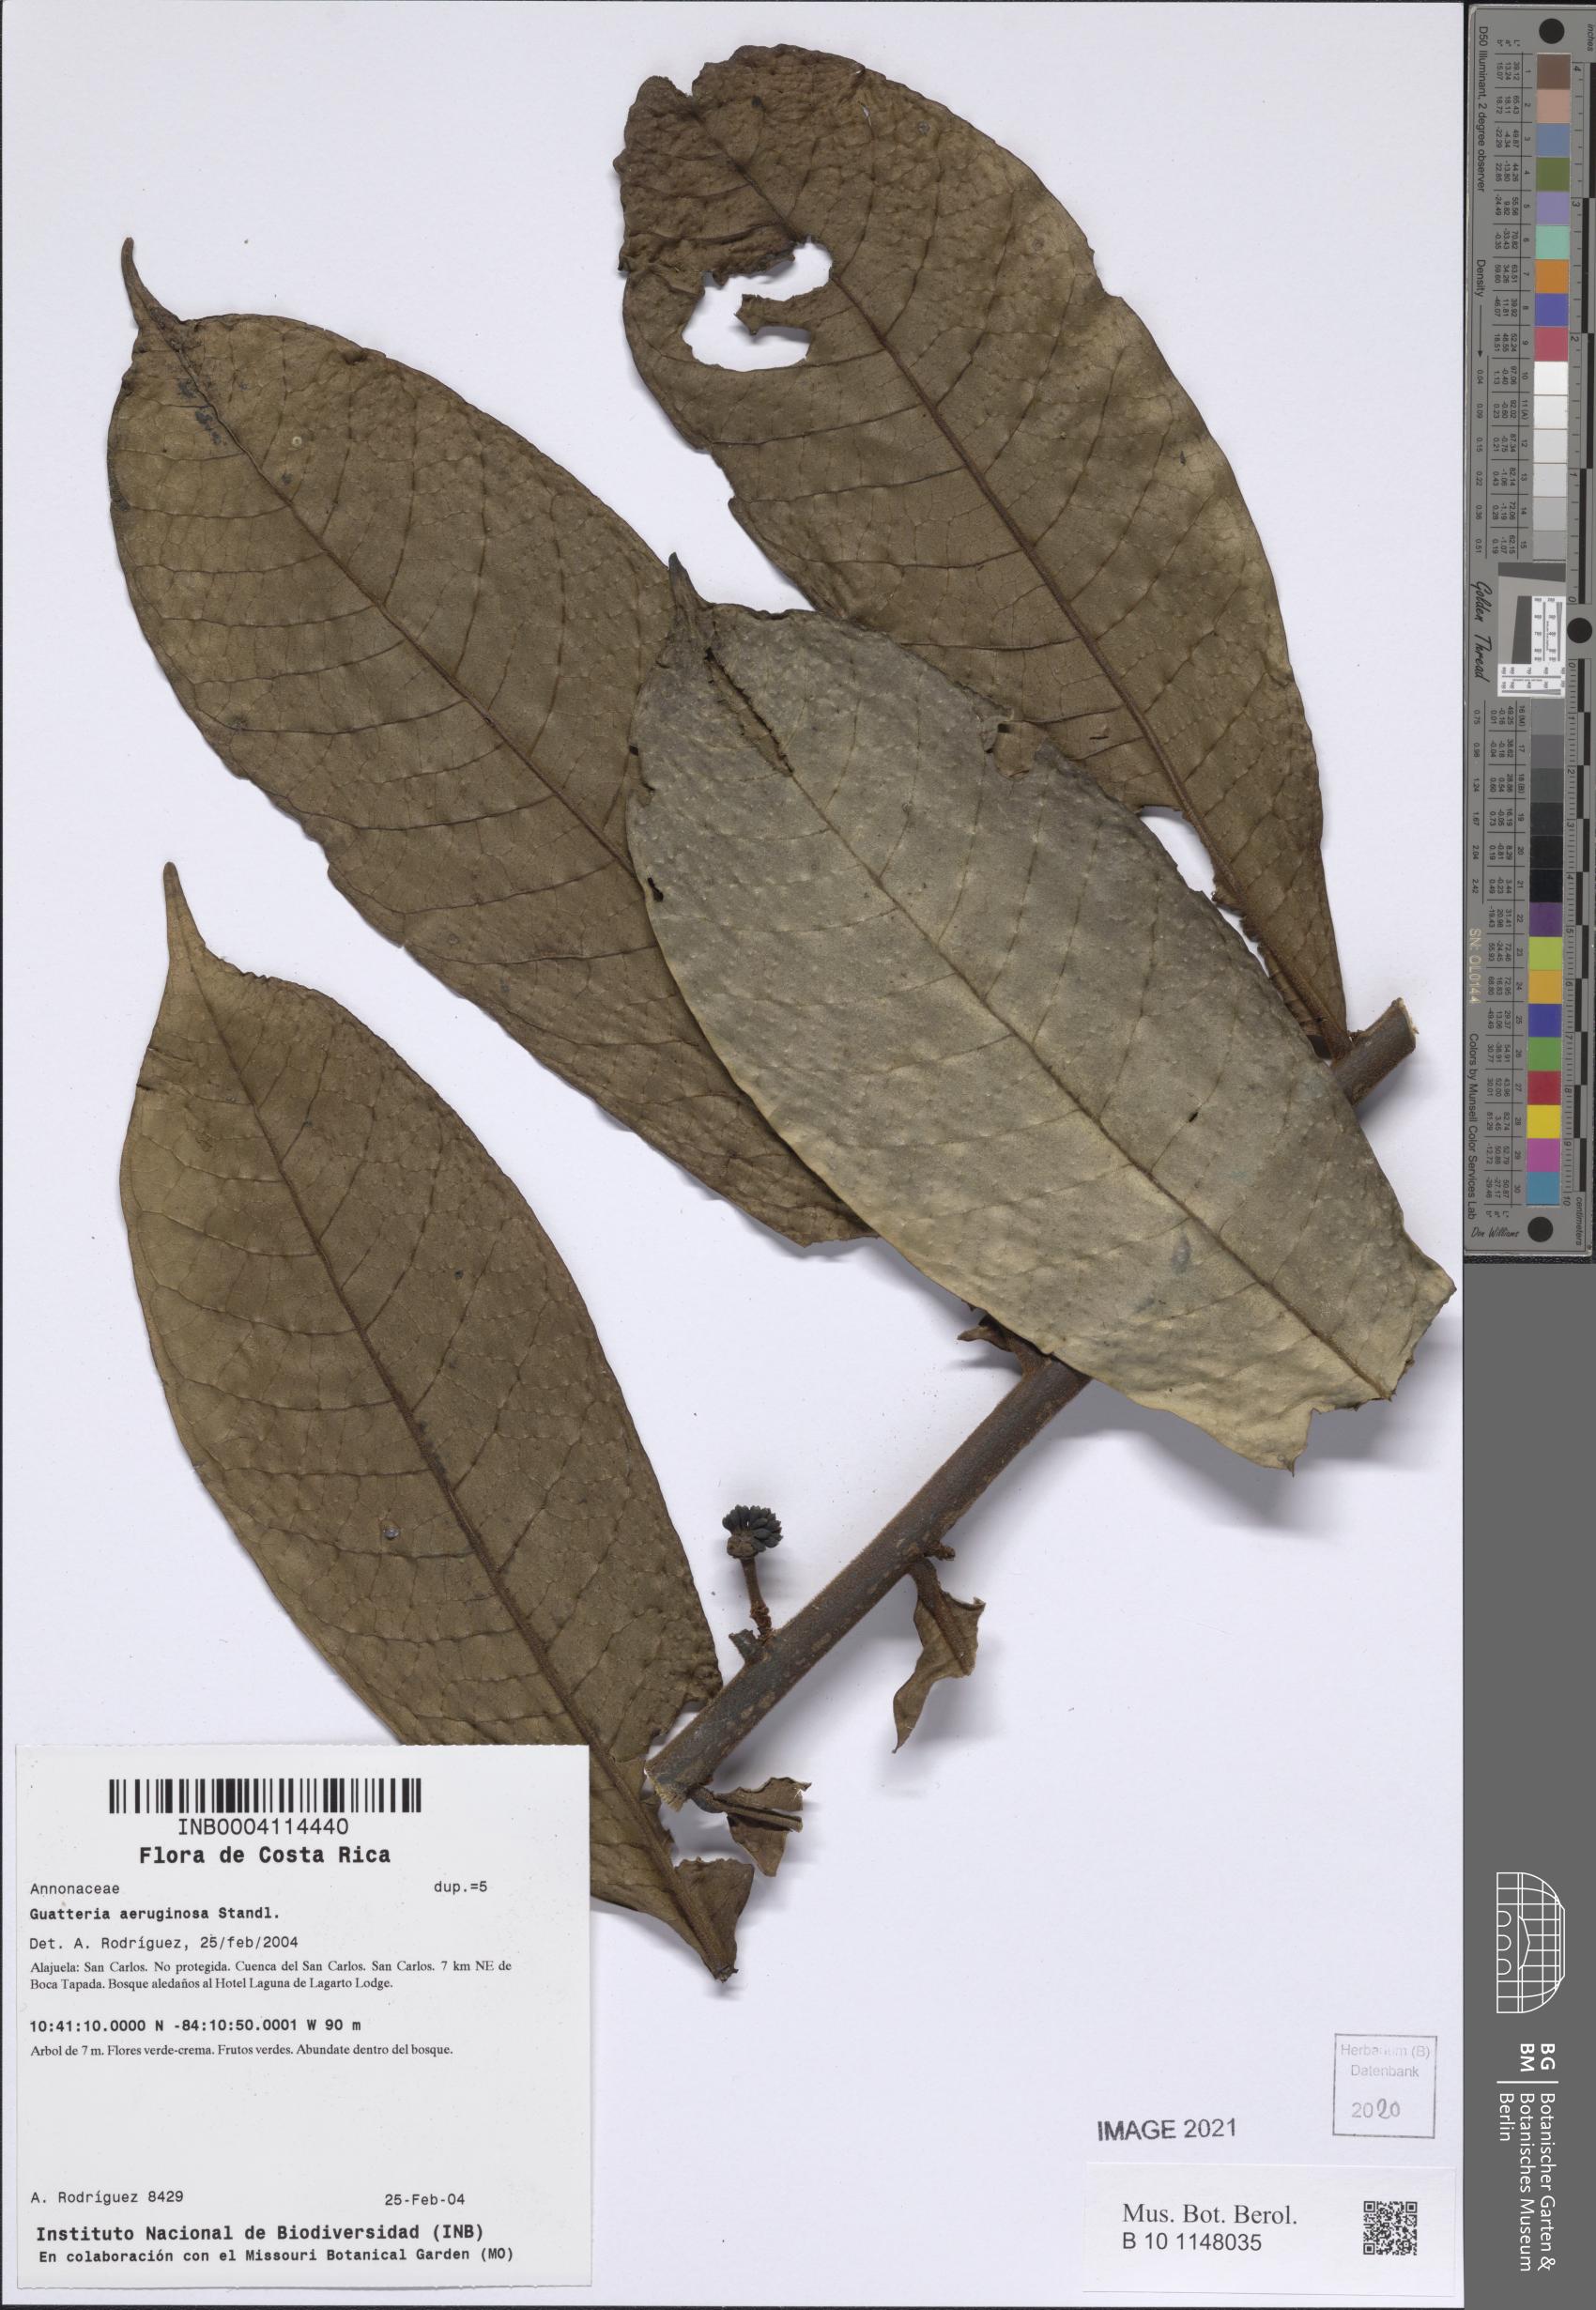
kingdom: Plantae
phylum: Tracheophyta
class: Magnoliopsida
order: Magnoliales
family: Annonaceae
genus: Guatteria
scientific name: Guatteria aeruginosa
